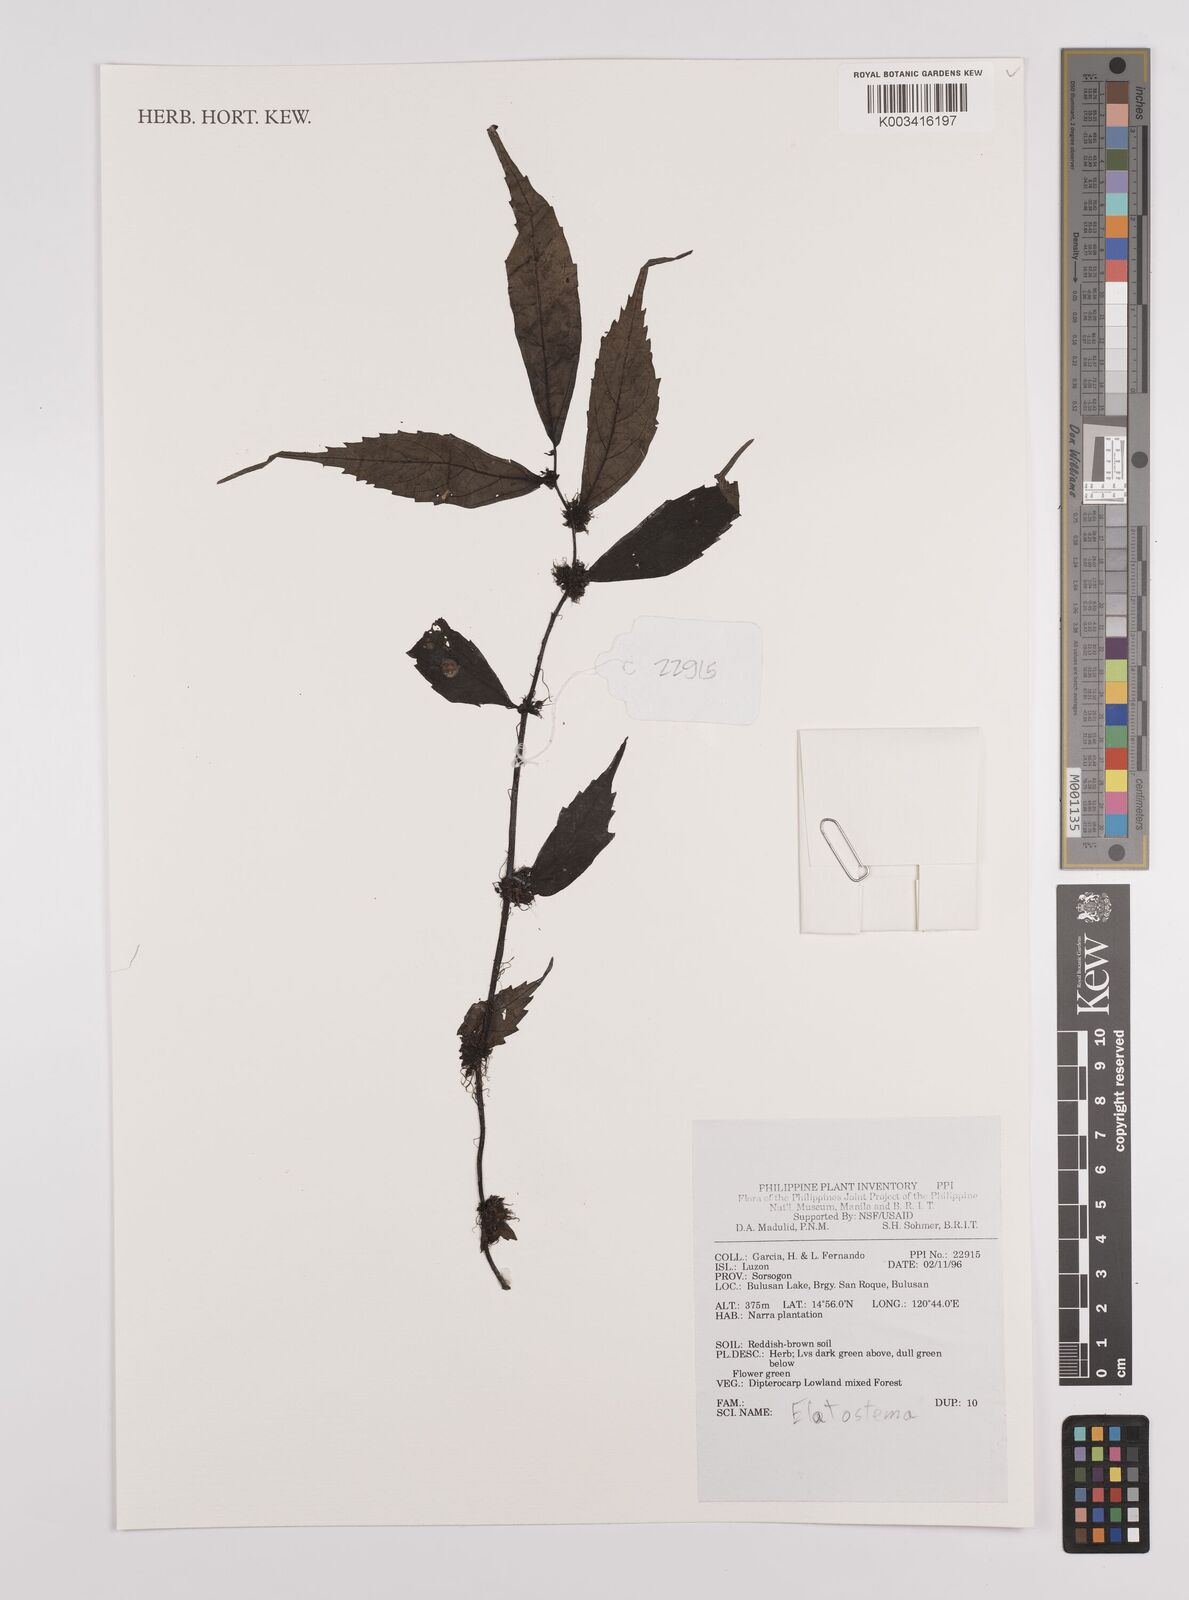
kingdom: Plantae
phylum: Tracheophyta
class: Magnoliopsida
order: Rosales
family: Urticaceae
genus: Elatostema
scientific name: Elatostema
